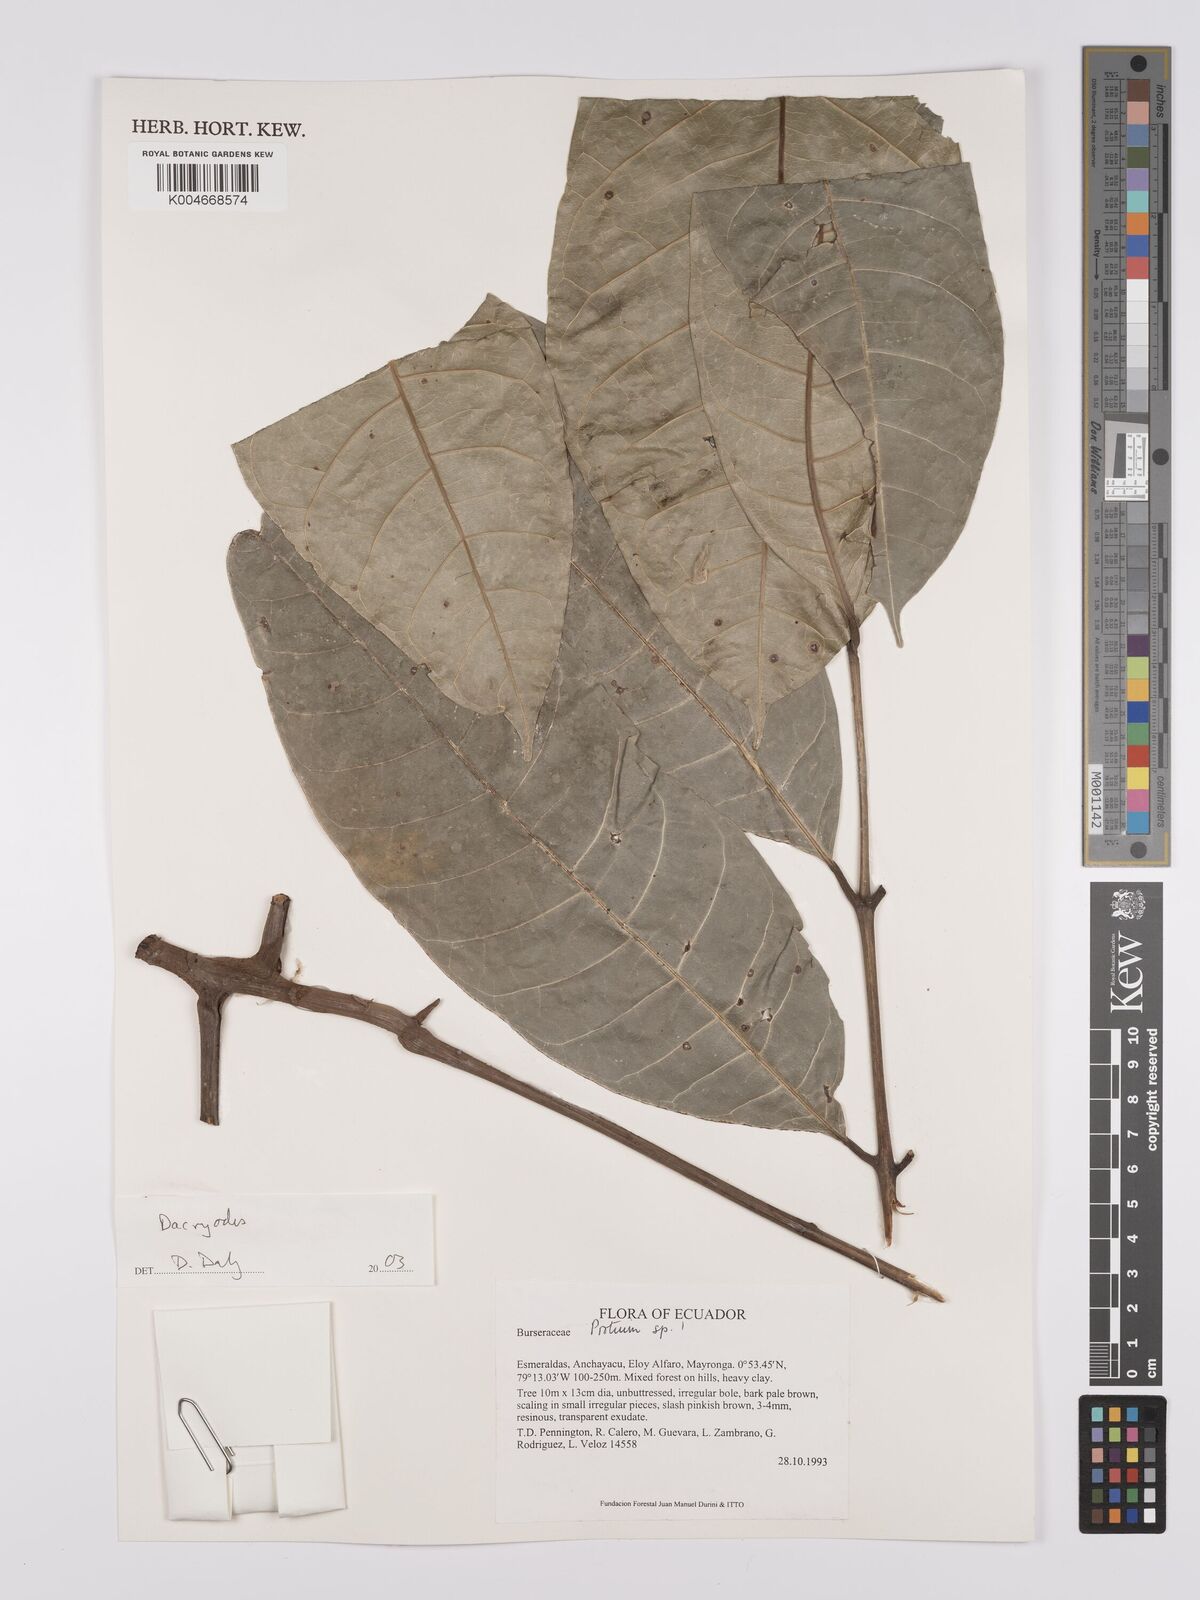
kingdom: Plantae
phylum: Tracheophyta
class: Magnoliopsida
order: Sapindales
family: Burseraceae
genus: Dacryodes
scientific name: Dacryodes
